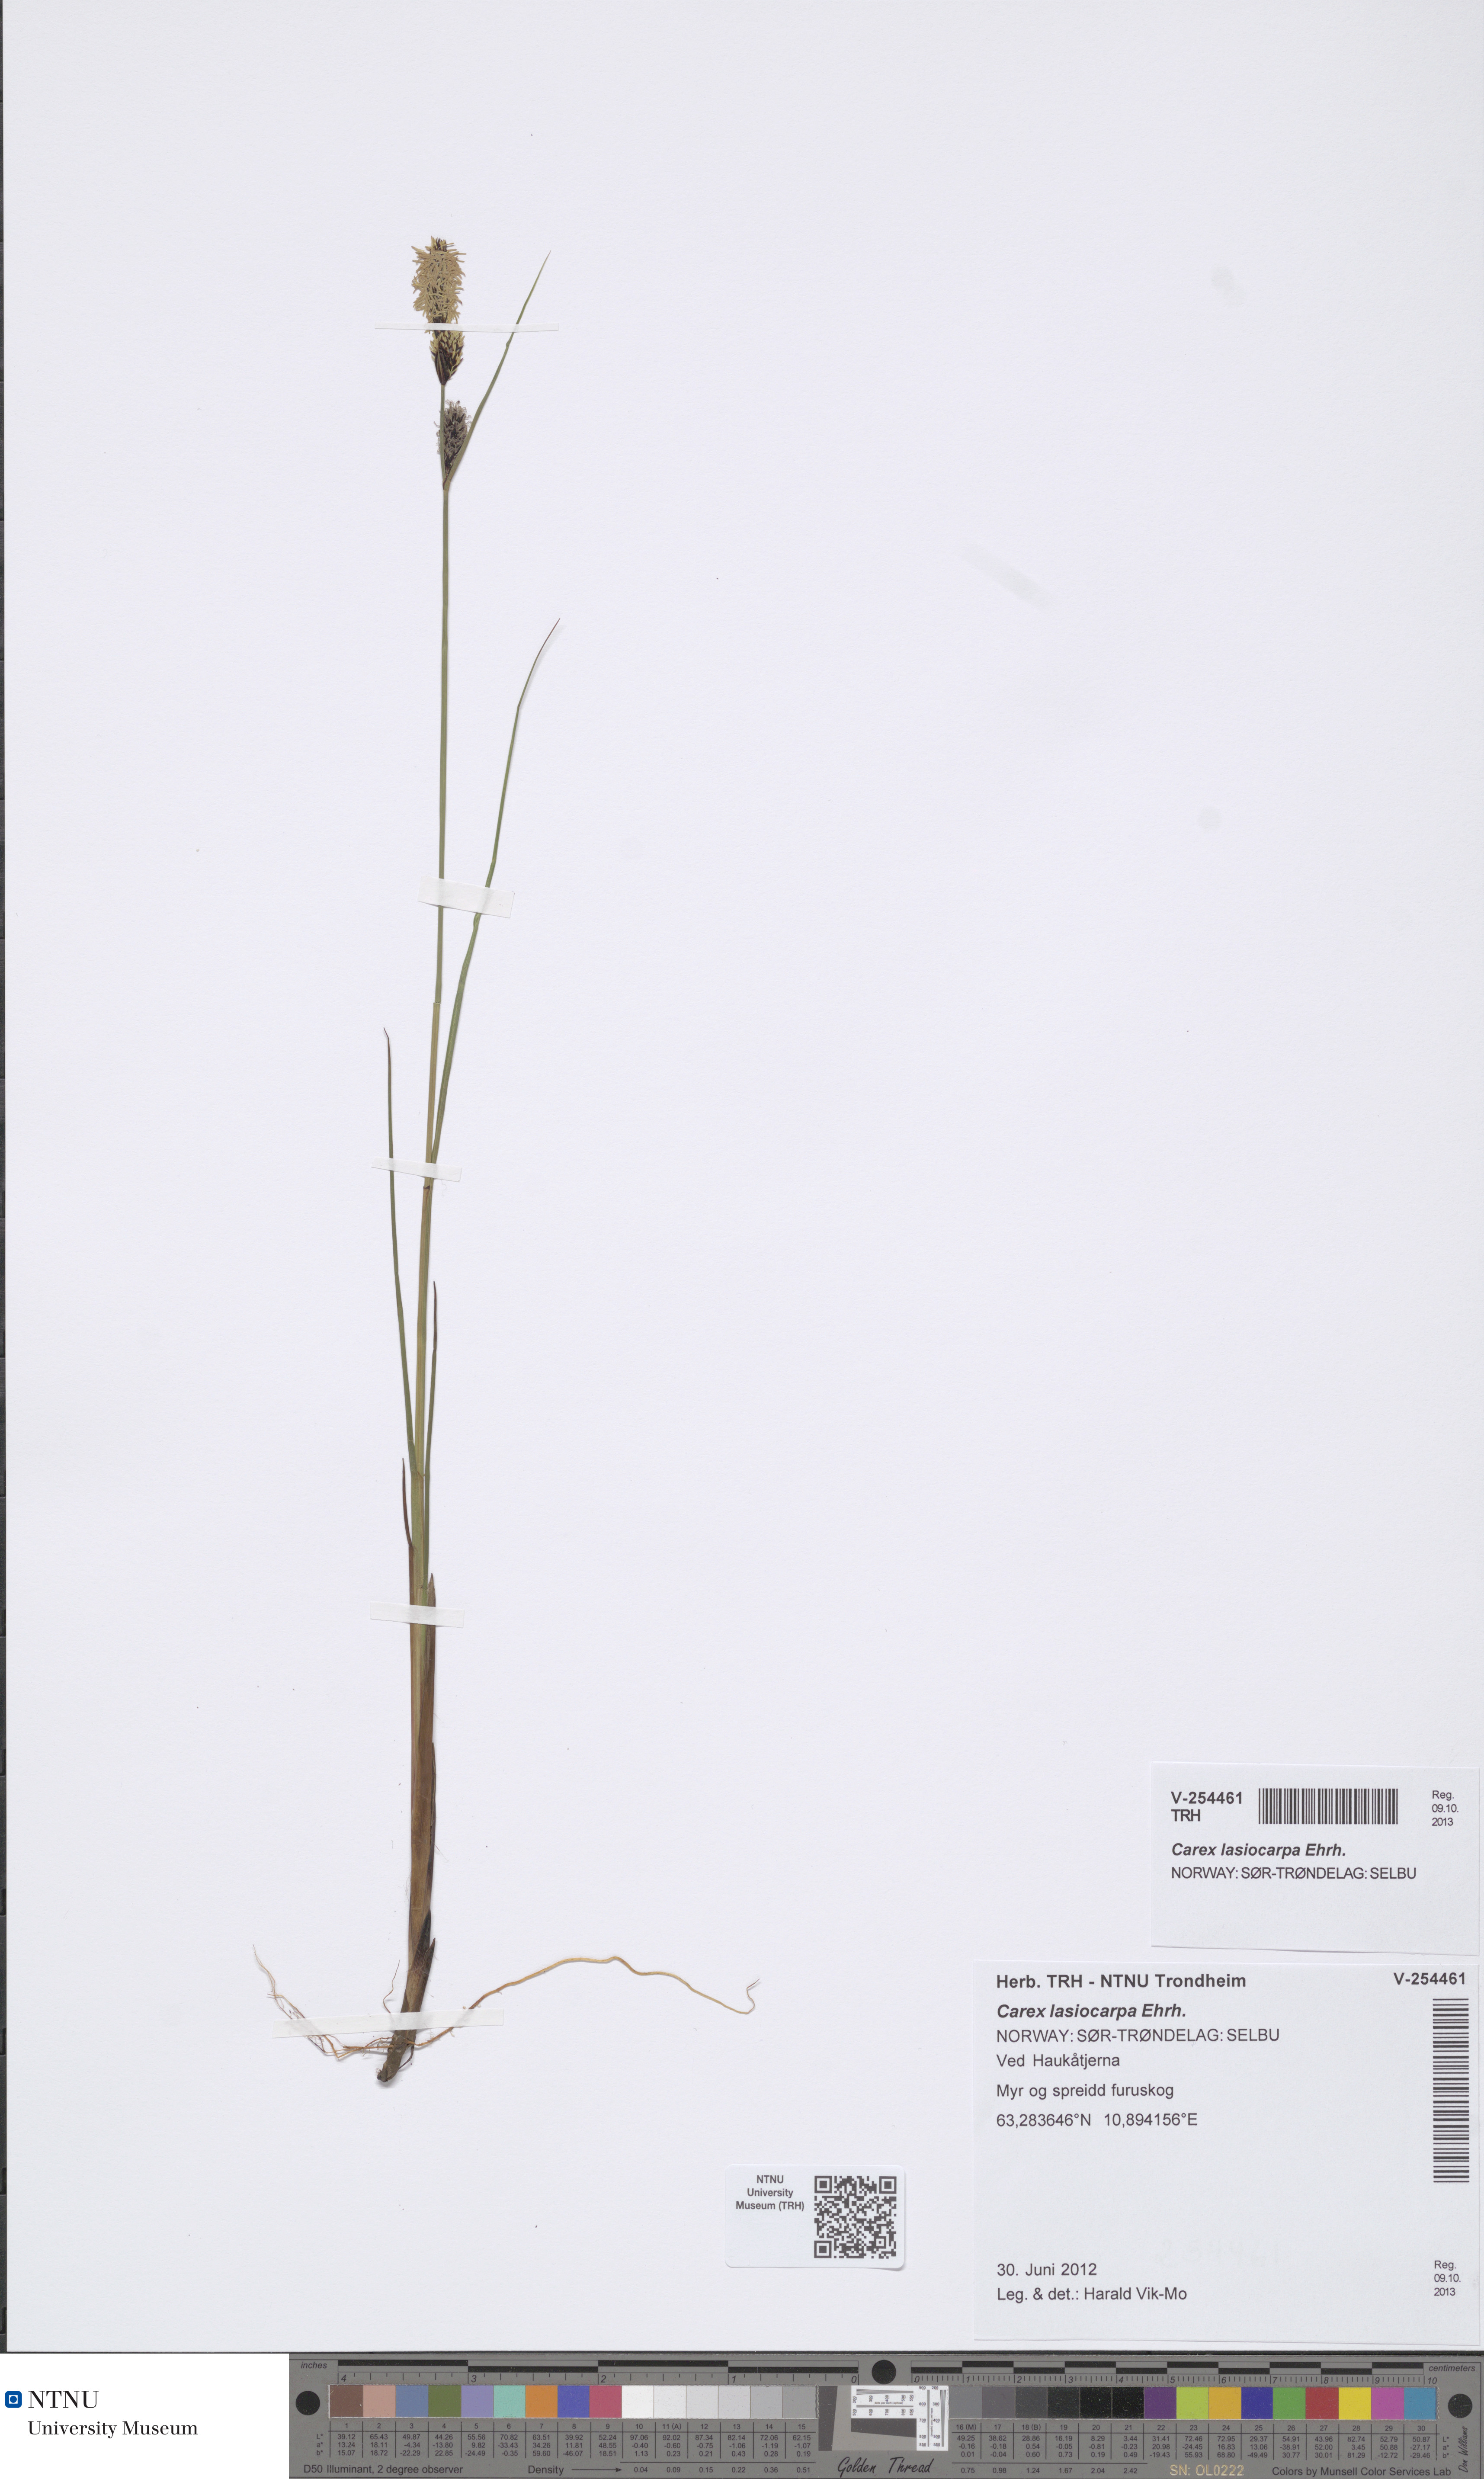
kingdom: Plantae
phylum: Tracheophyta
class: Liliopsida
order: Poales
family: Cyperaceae
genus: Carex
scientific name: Carex lasiocarpa
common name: Slender sedge
